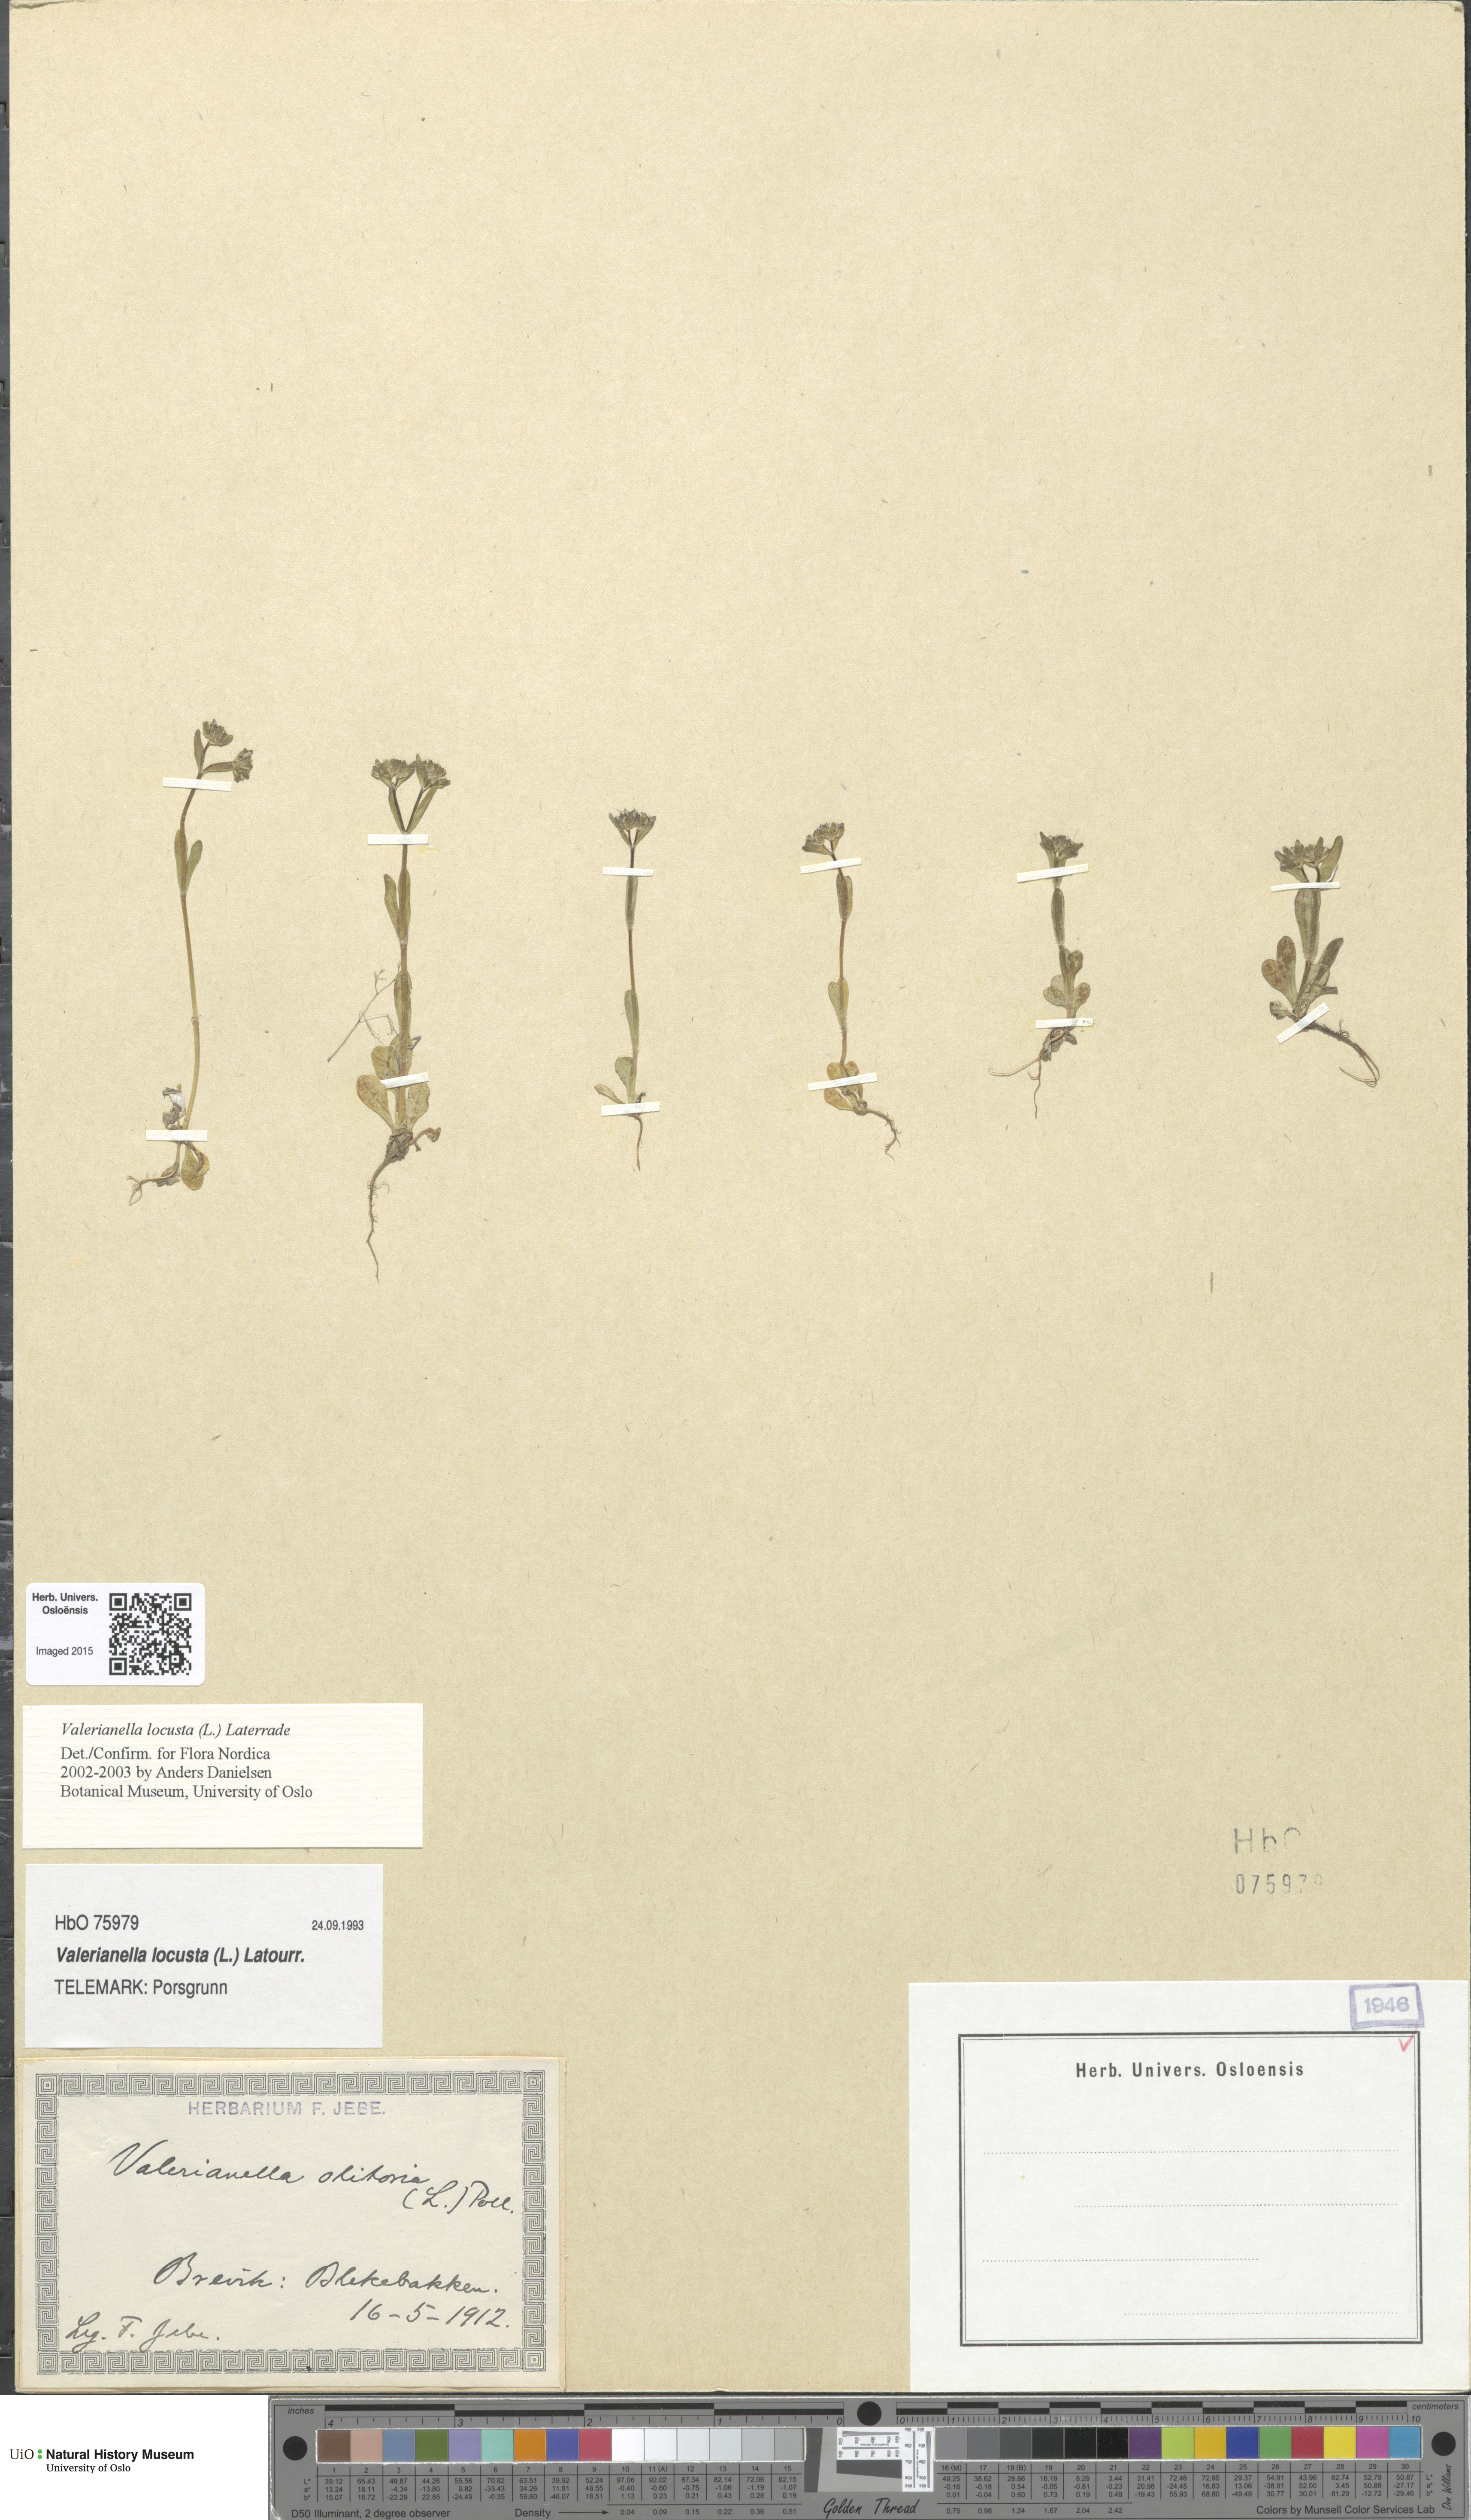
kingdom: Plantae
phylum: Tracheophyta
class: Magnoliopsida
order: Dipsacales
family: Caprifoliaceae
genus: Valerianella
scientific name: Valerianella locusta
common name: Common cornsalad
